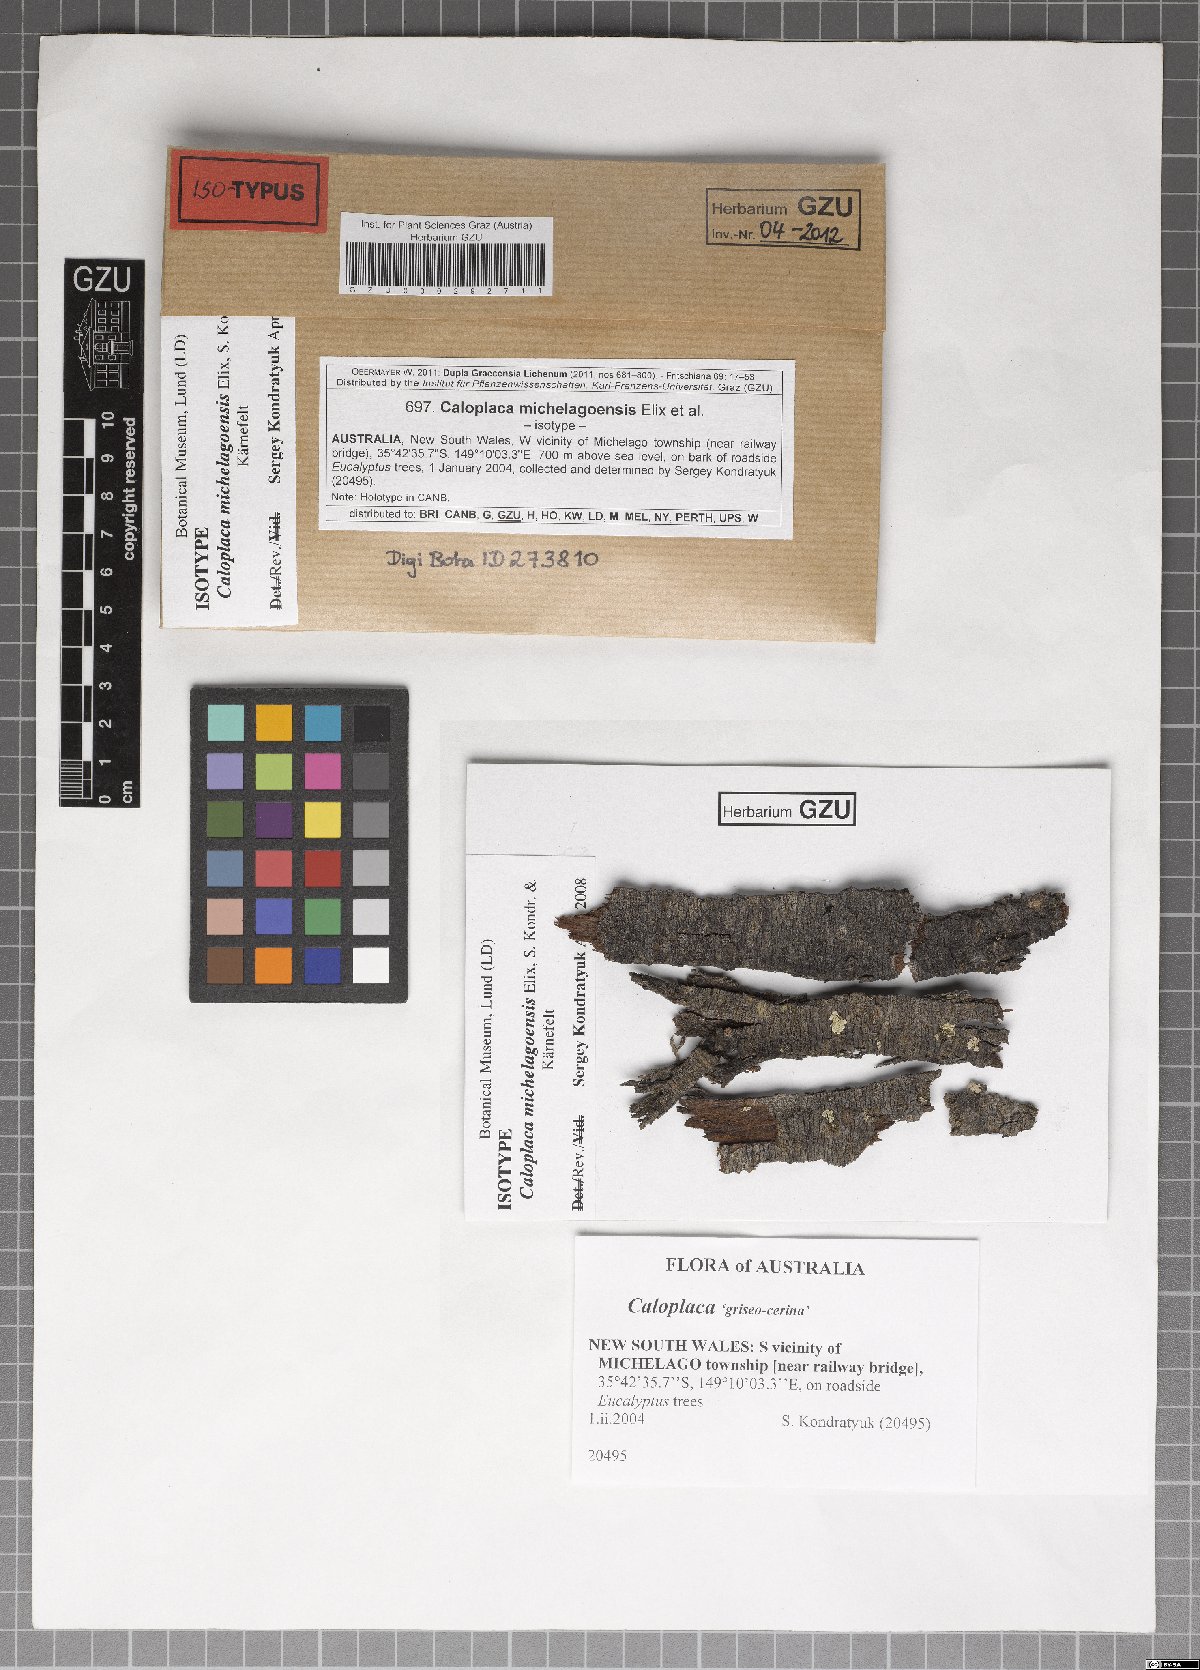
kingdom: Fungi
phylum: Ascomycota
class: Lecanoromycetes
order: Teloschistales
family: Teloschistaceae
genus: Streimanniella
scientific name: Streimanniella michelagoensis
